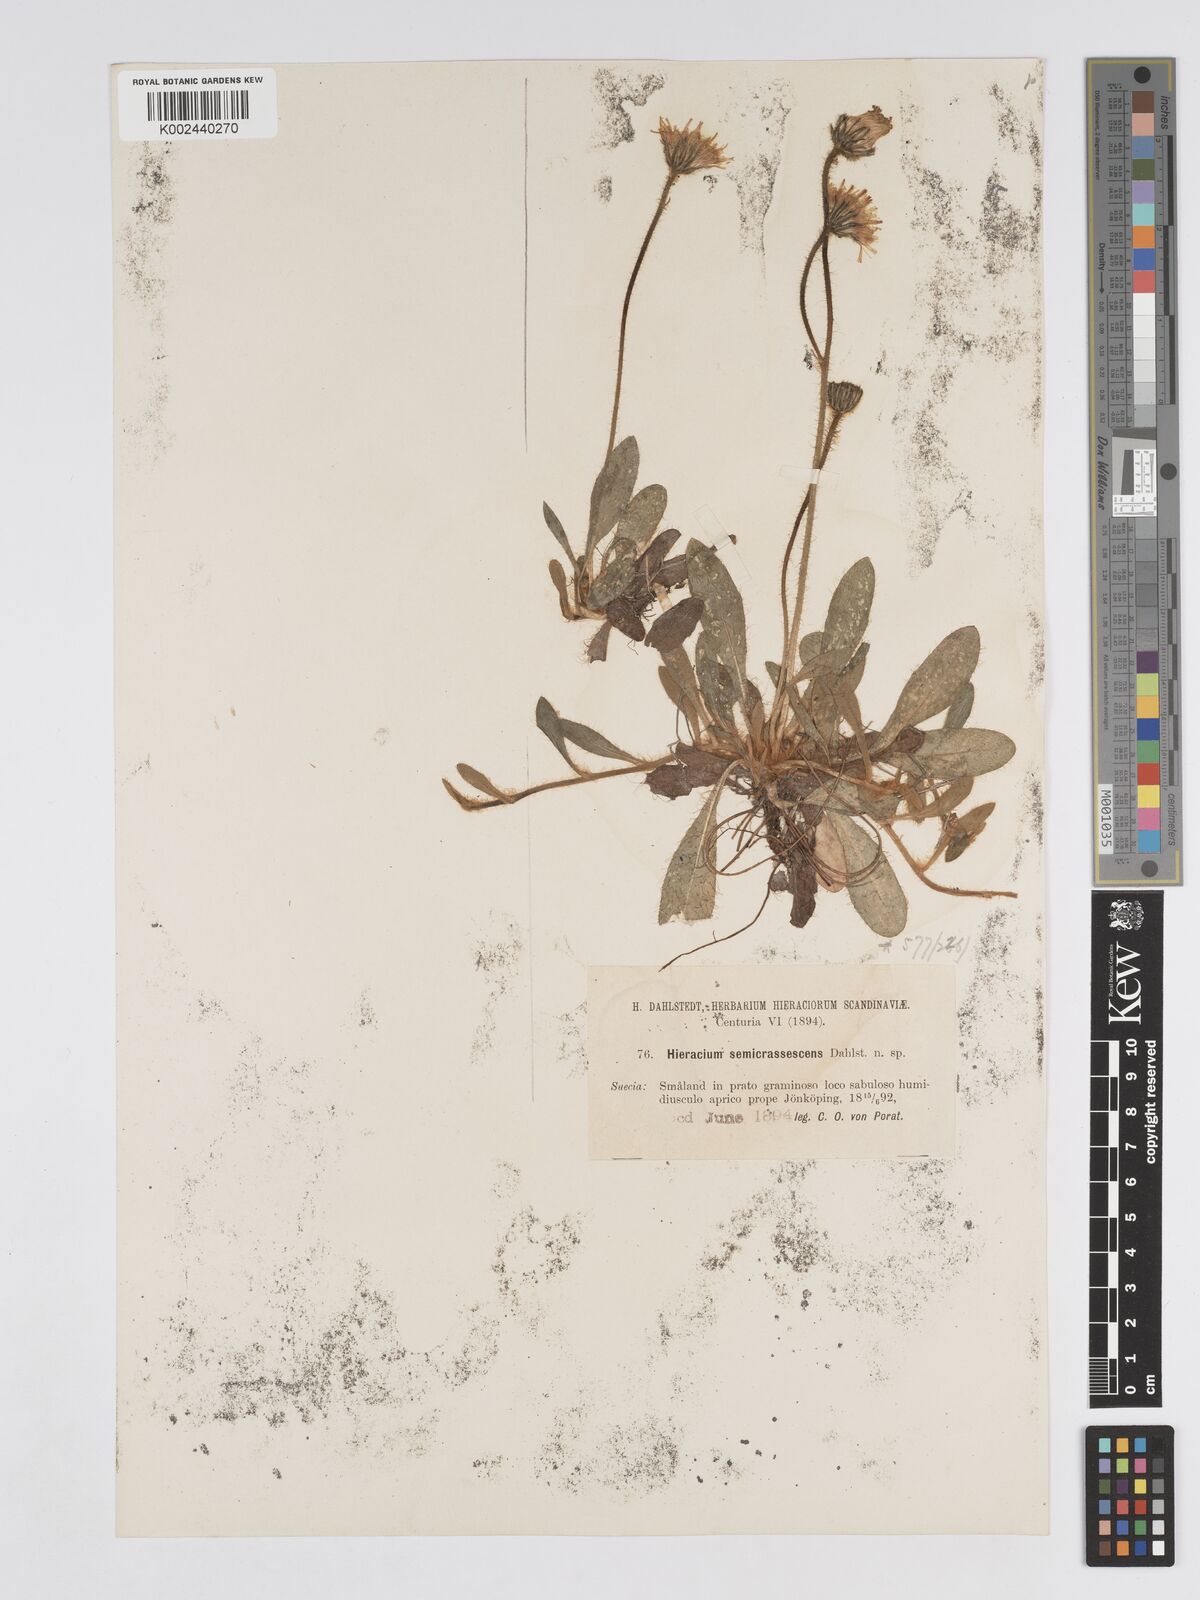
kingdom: Plantae
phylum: Tracheophyta
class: Magnoliopsida
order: Asterales
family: Asteraceae
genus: Hieracium
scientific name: Hieracium
